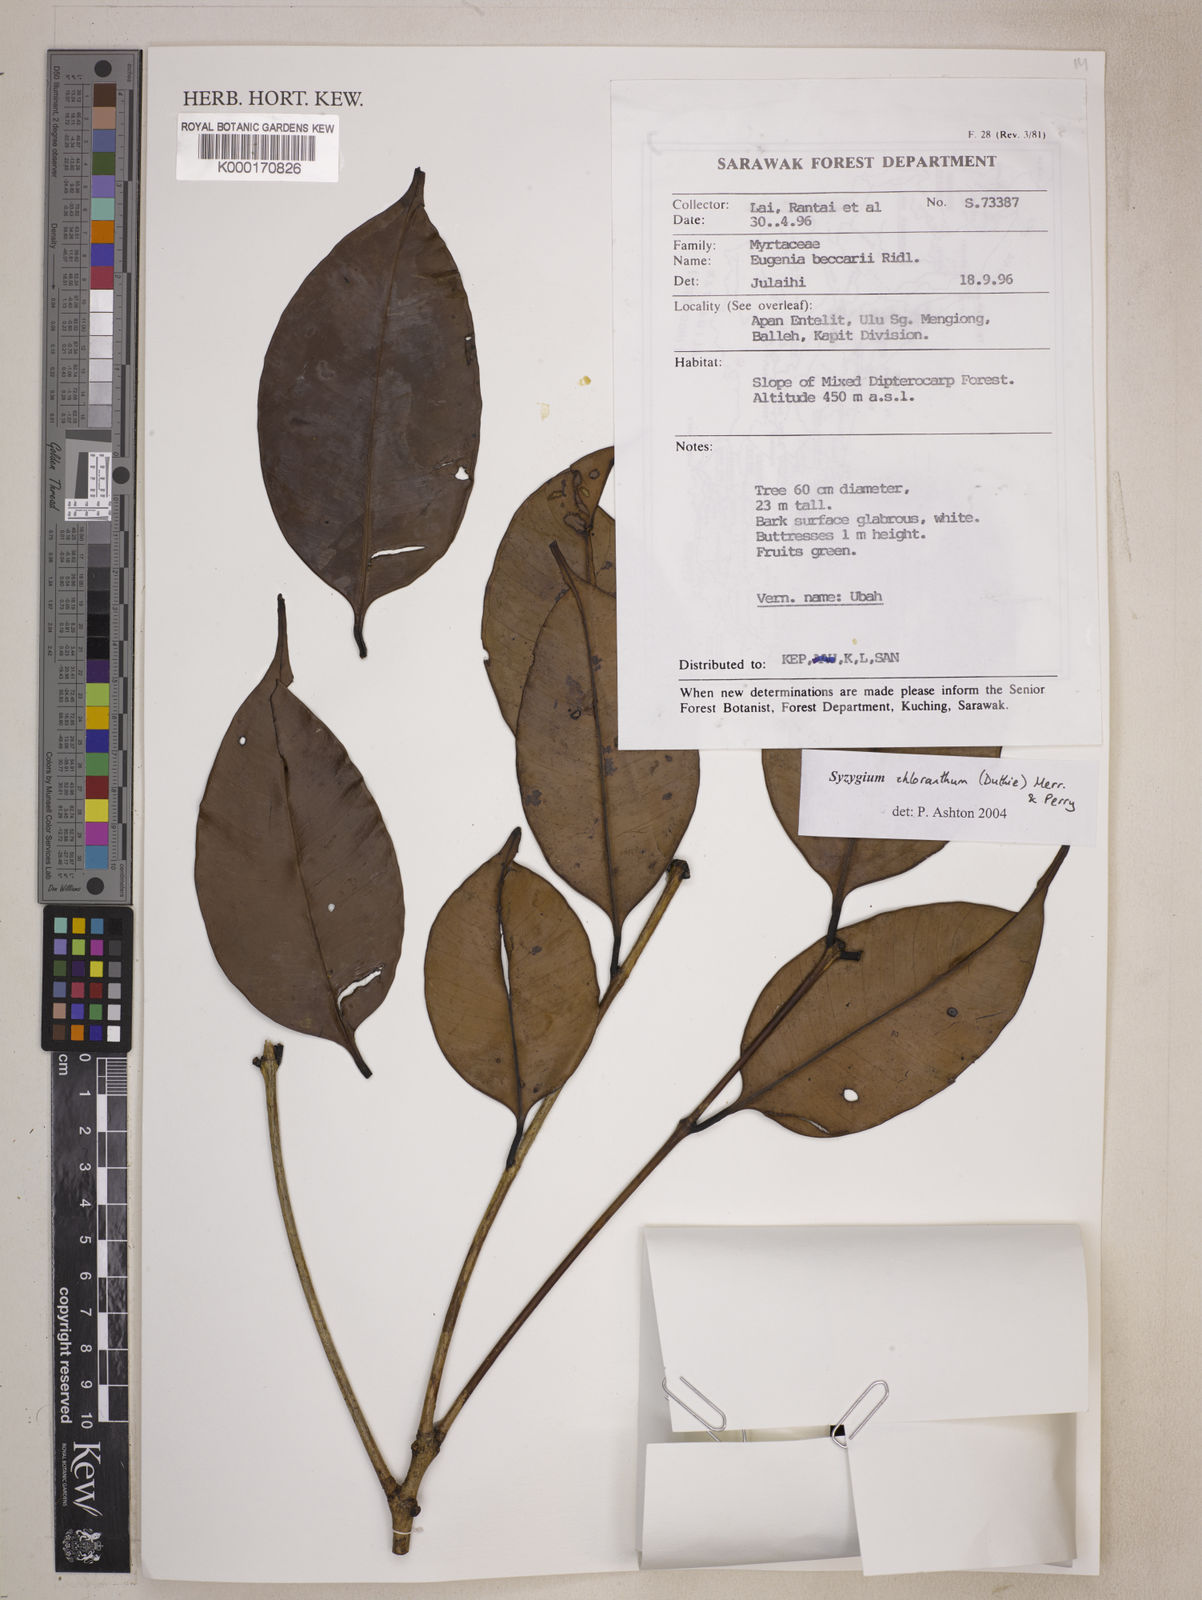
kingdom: Plantae
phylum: Tracheophyta
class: Magnoliopsida
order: Myrtales
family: Myrtaceae
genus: Syzygium
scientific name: Syzygium chloranthum
